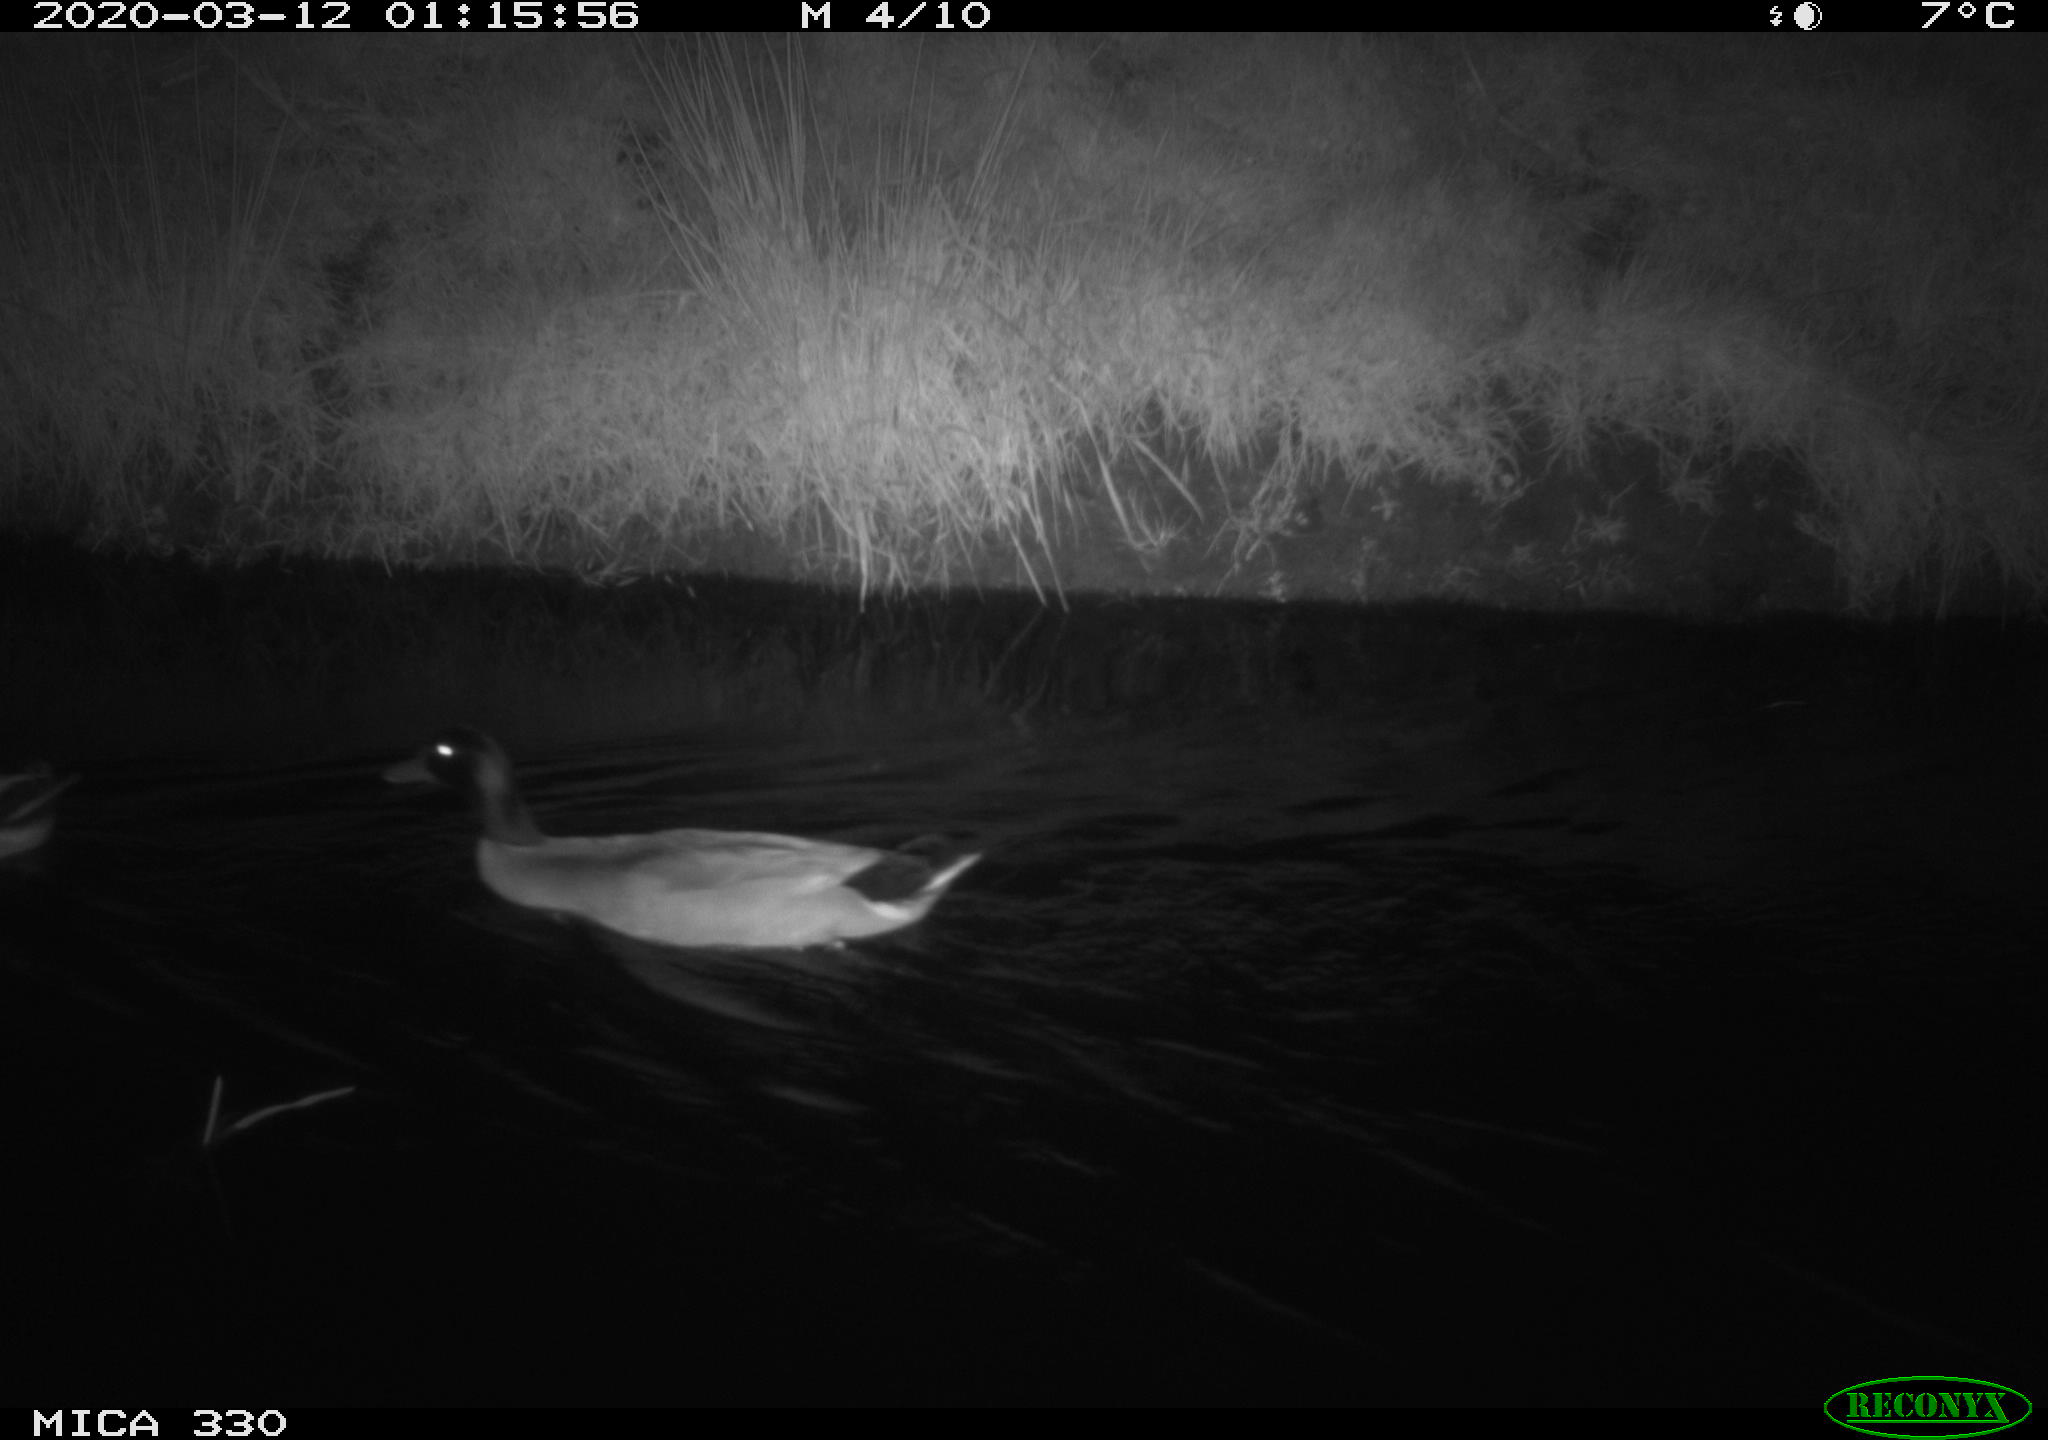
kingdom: Animalia
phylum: Chordata
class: Aves
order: Anseriformes
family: Anatidae
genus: Anas
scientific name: Anas platyrhynchos
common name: Mallard
